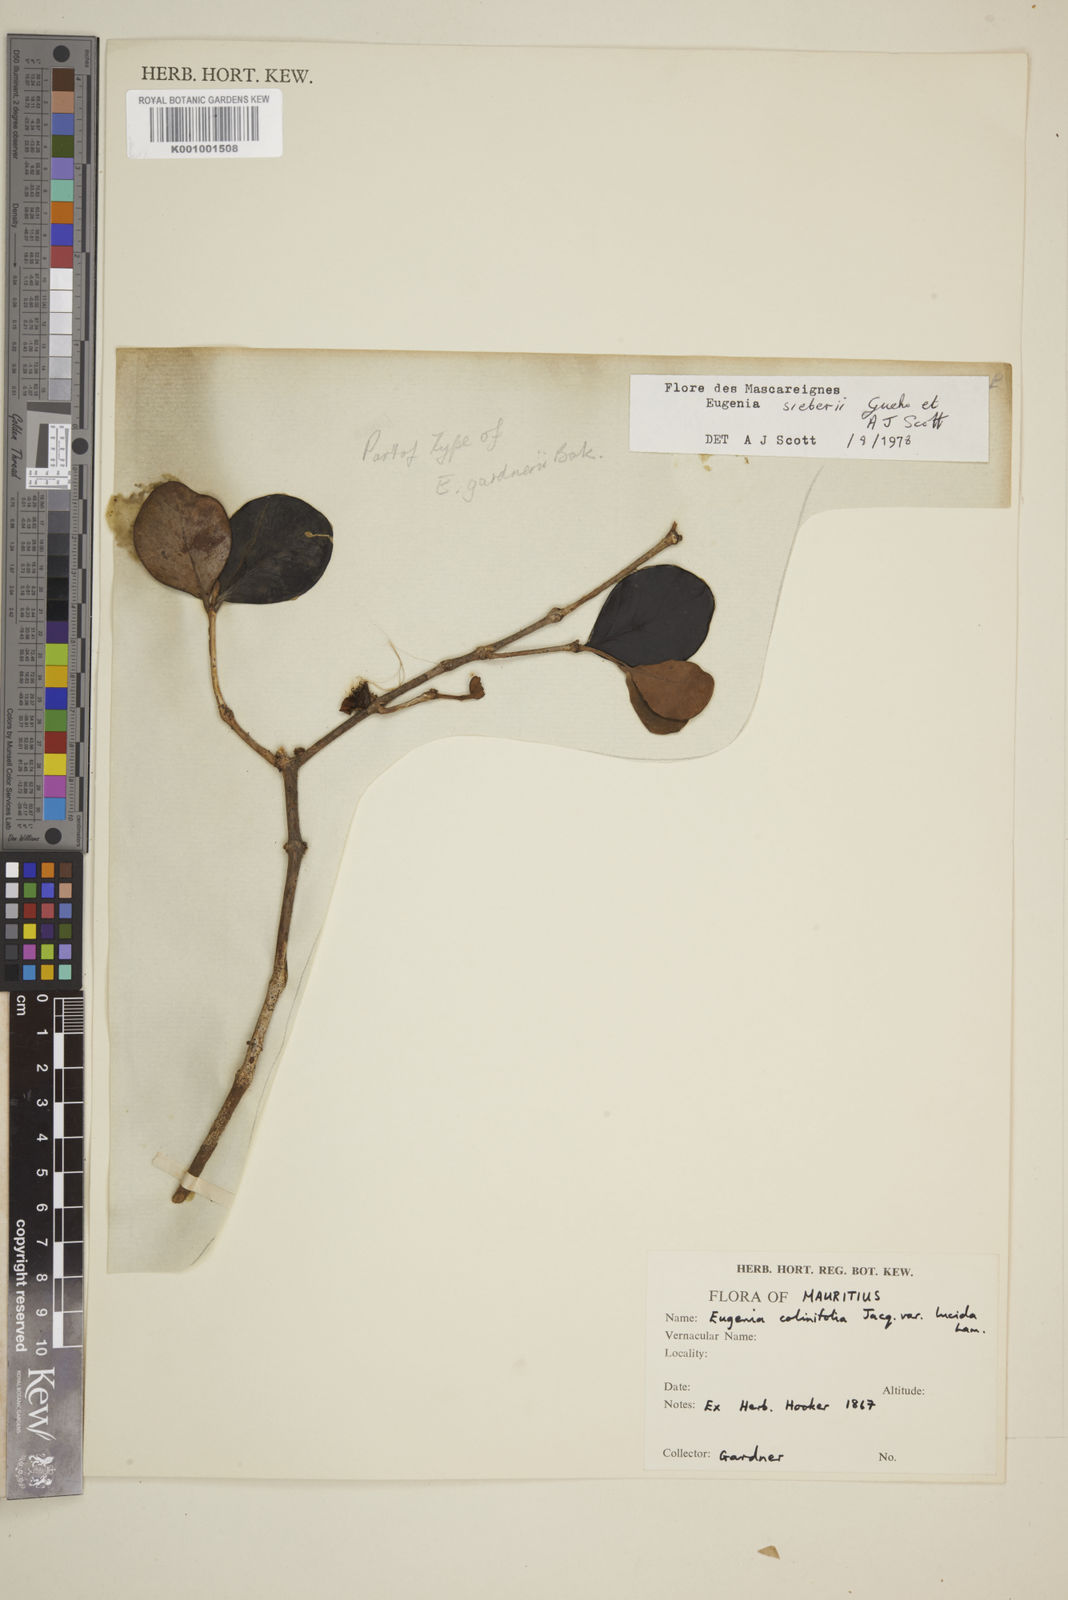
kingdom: Plantae
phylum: Tracheophyta
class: Magnoliopsida
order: Myrtales
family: Myrtaceae
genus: Eugenia
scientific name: Eugenia
